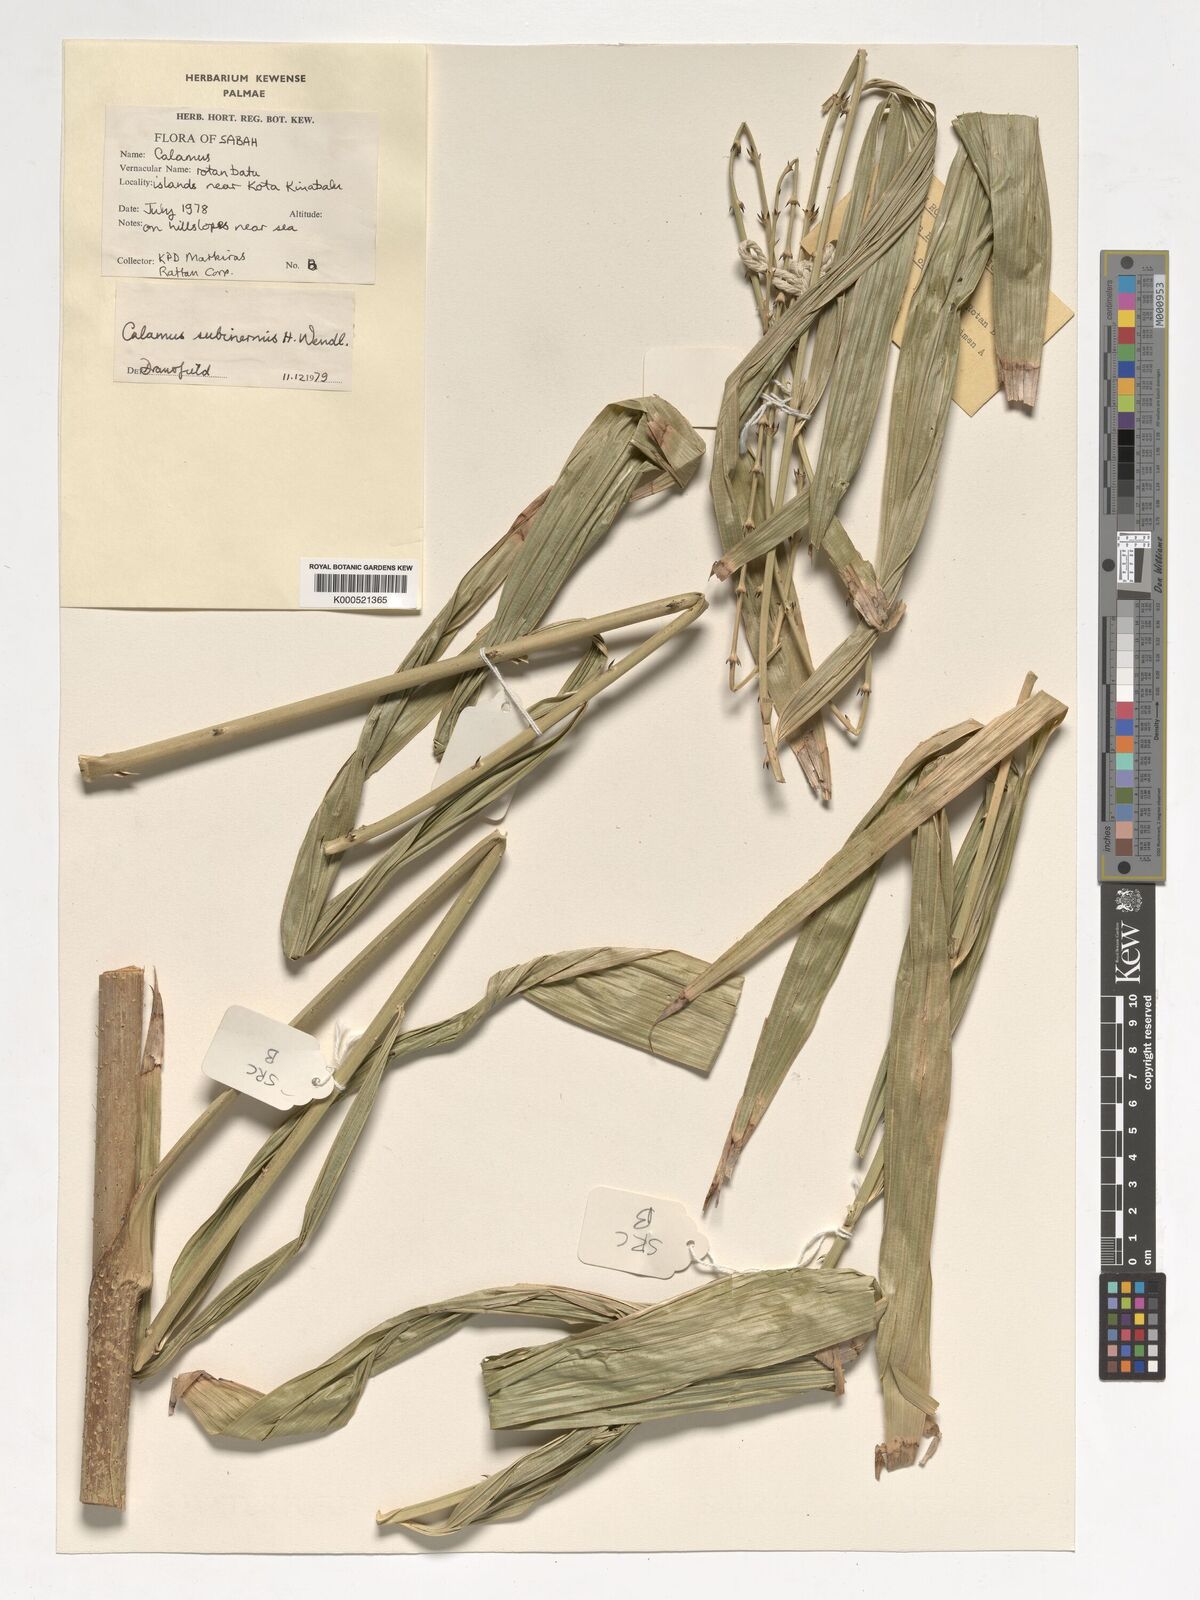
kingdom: Plantae
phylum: Tracheophyta
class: Liliopsida
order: Arecales
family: Arecaceae
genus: Calamus
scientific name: Calamus moseleyanus
